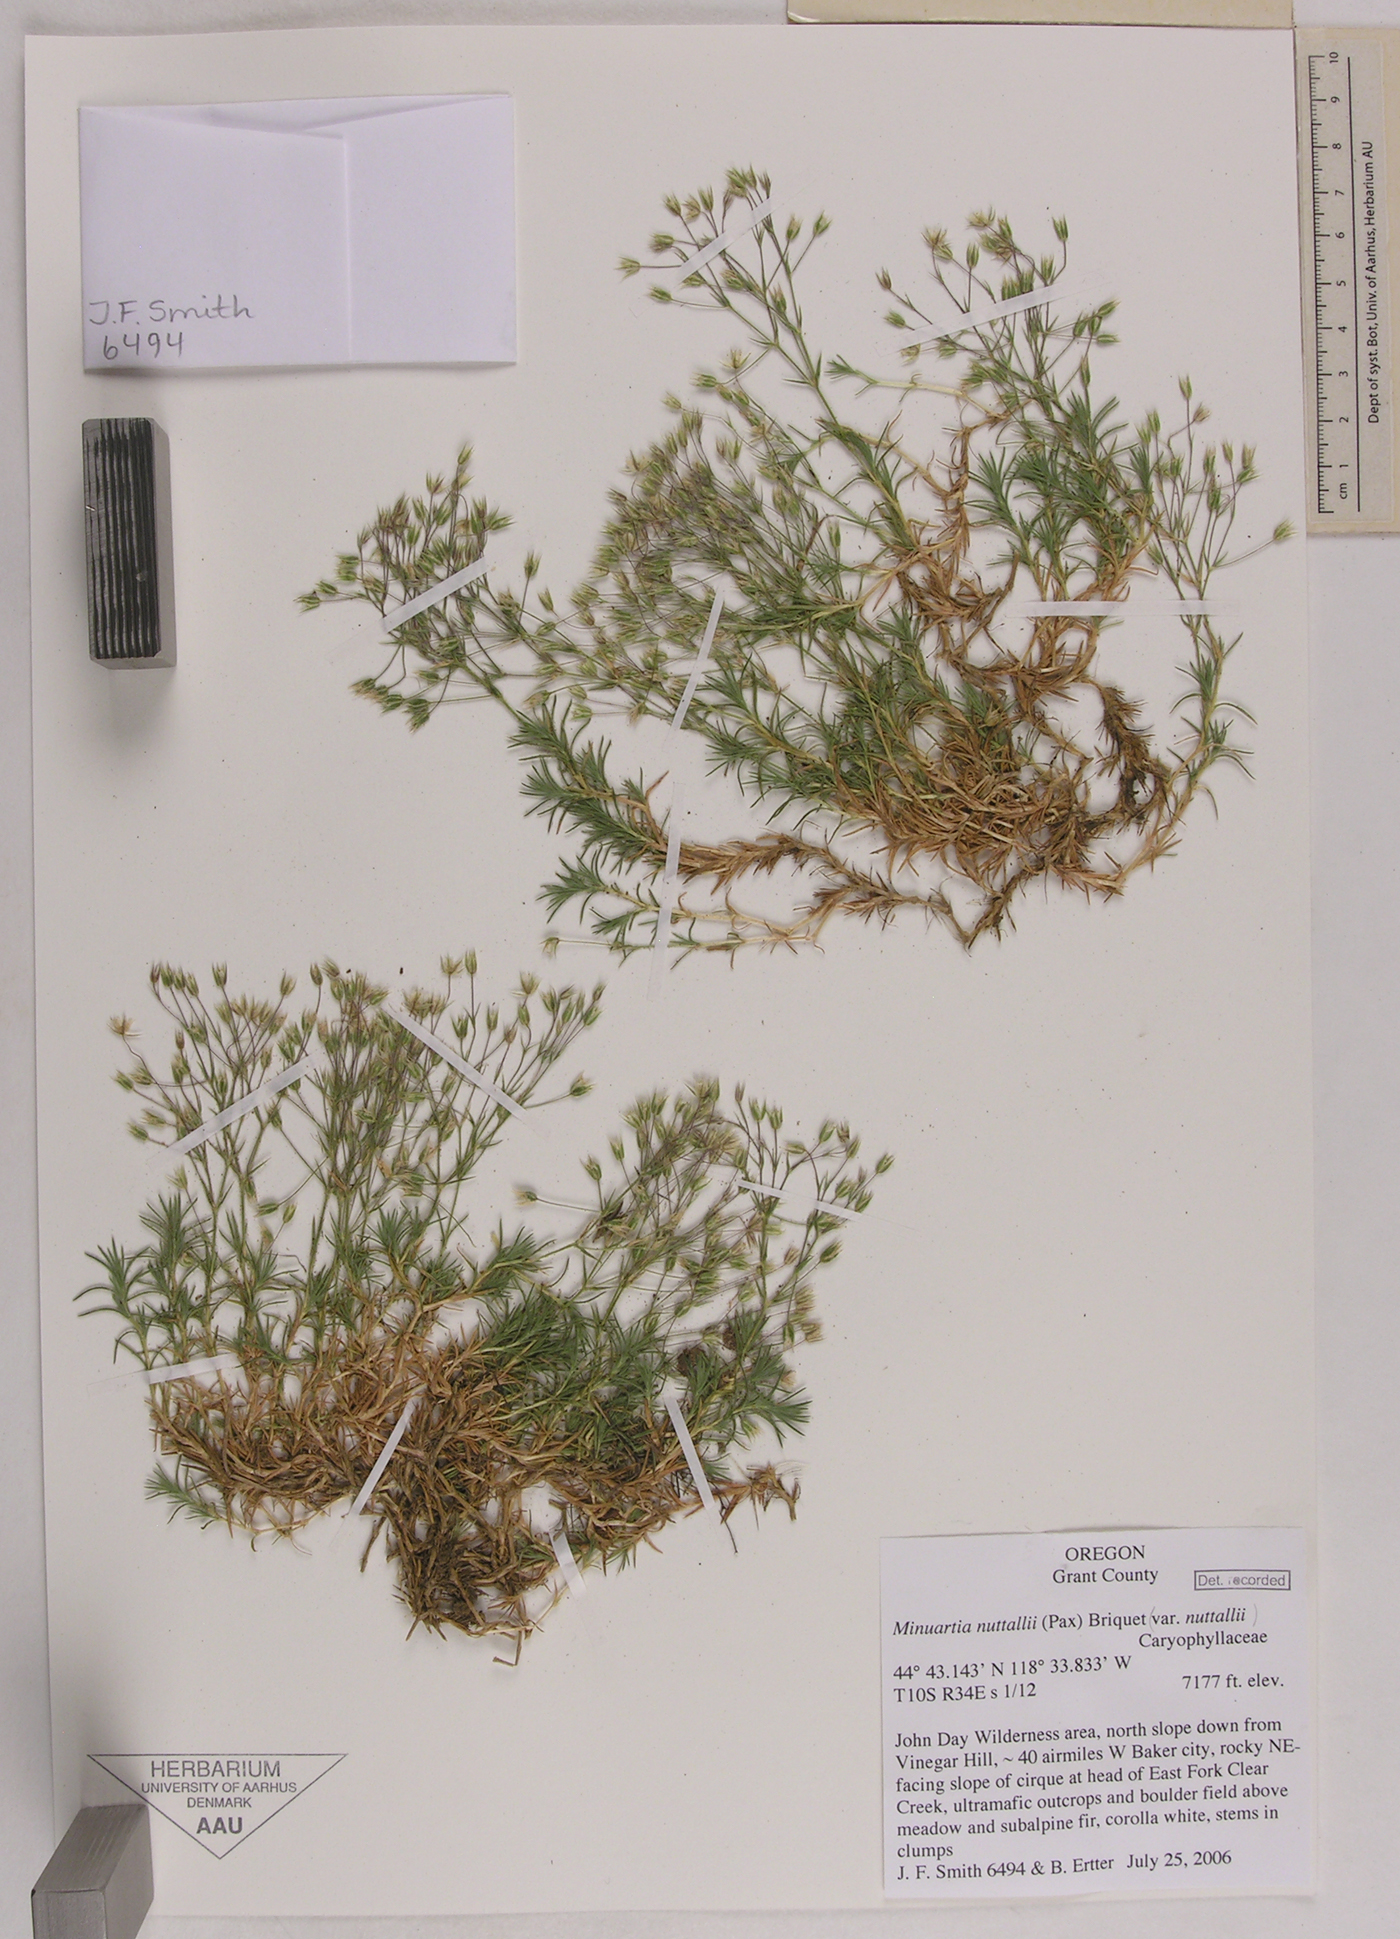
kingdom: Plantae
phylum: Tracheophyta
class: Magnoliopsida
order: Caryophyllales
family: Caryophyllaceae
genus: Sabulina
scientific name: Sabulina nuttallii
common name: Nuttall's stitchwort
